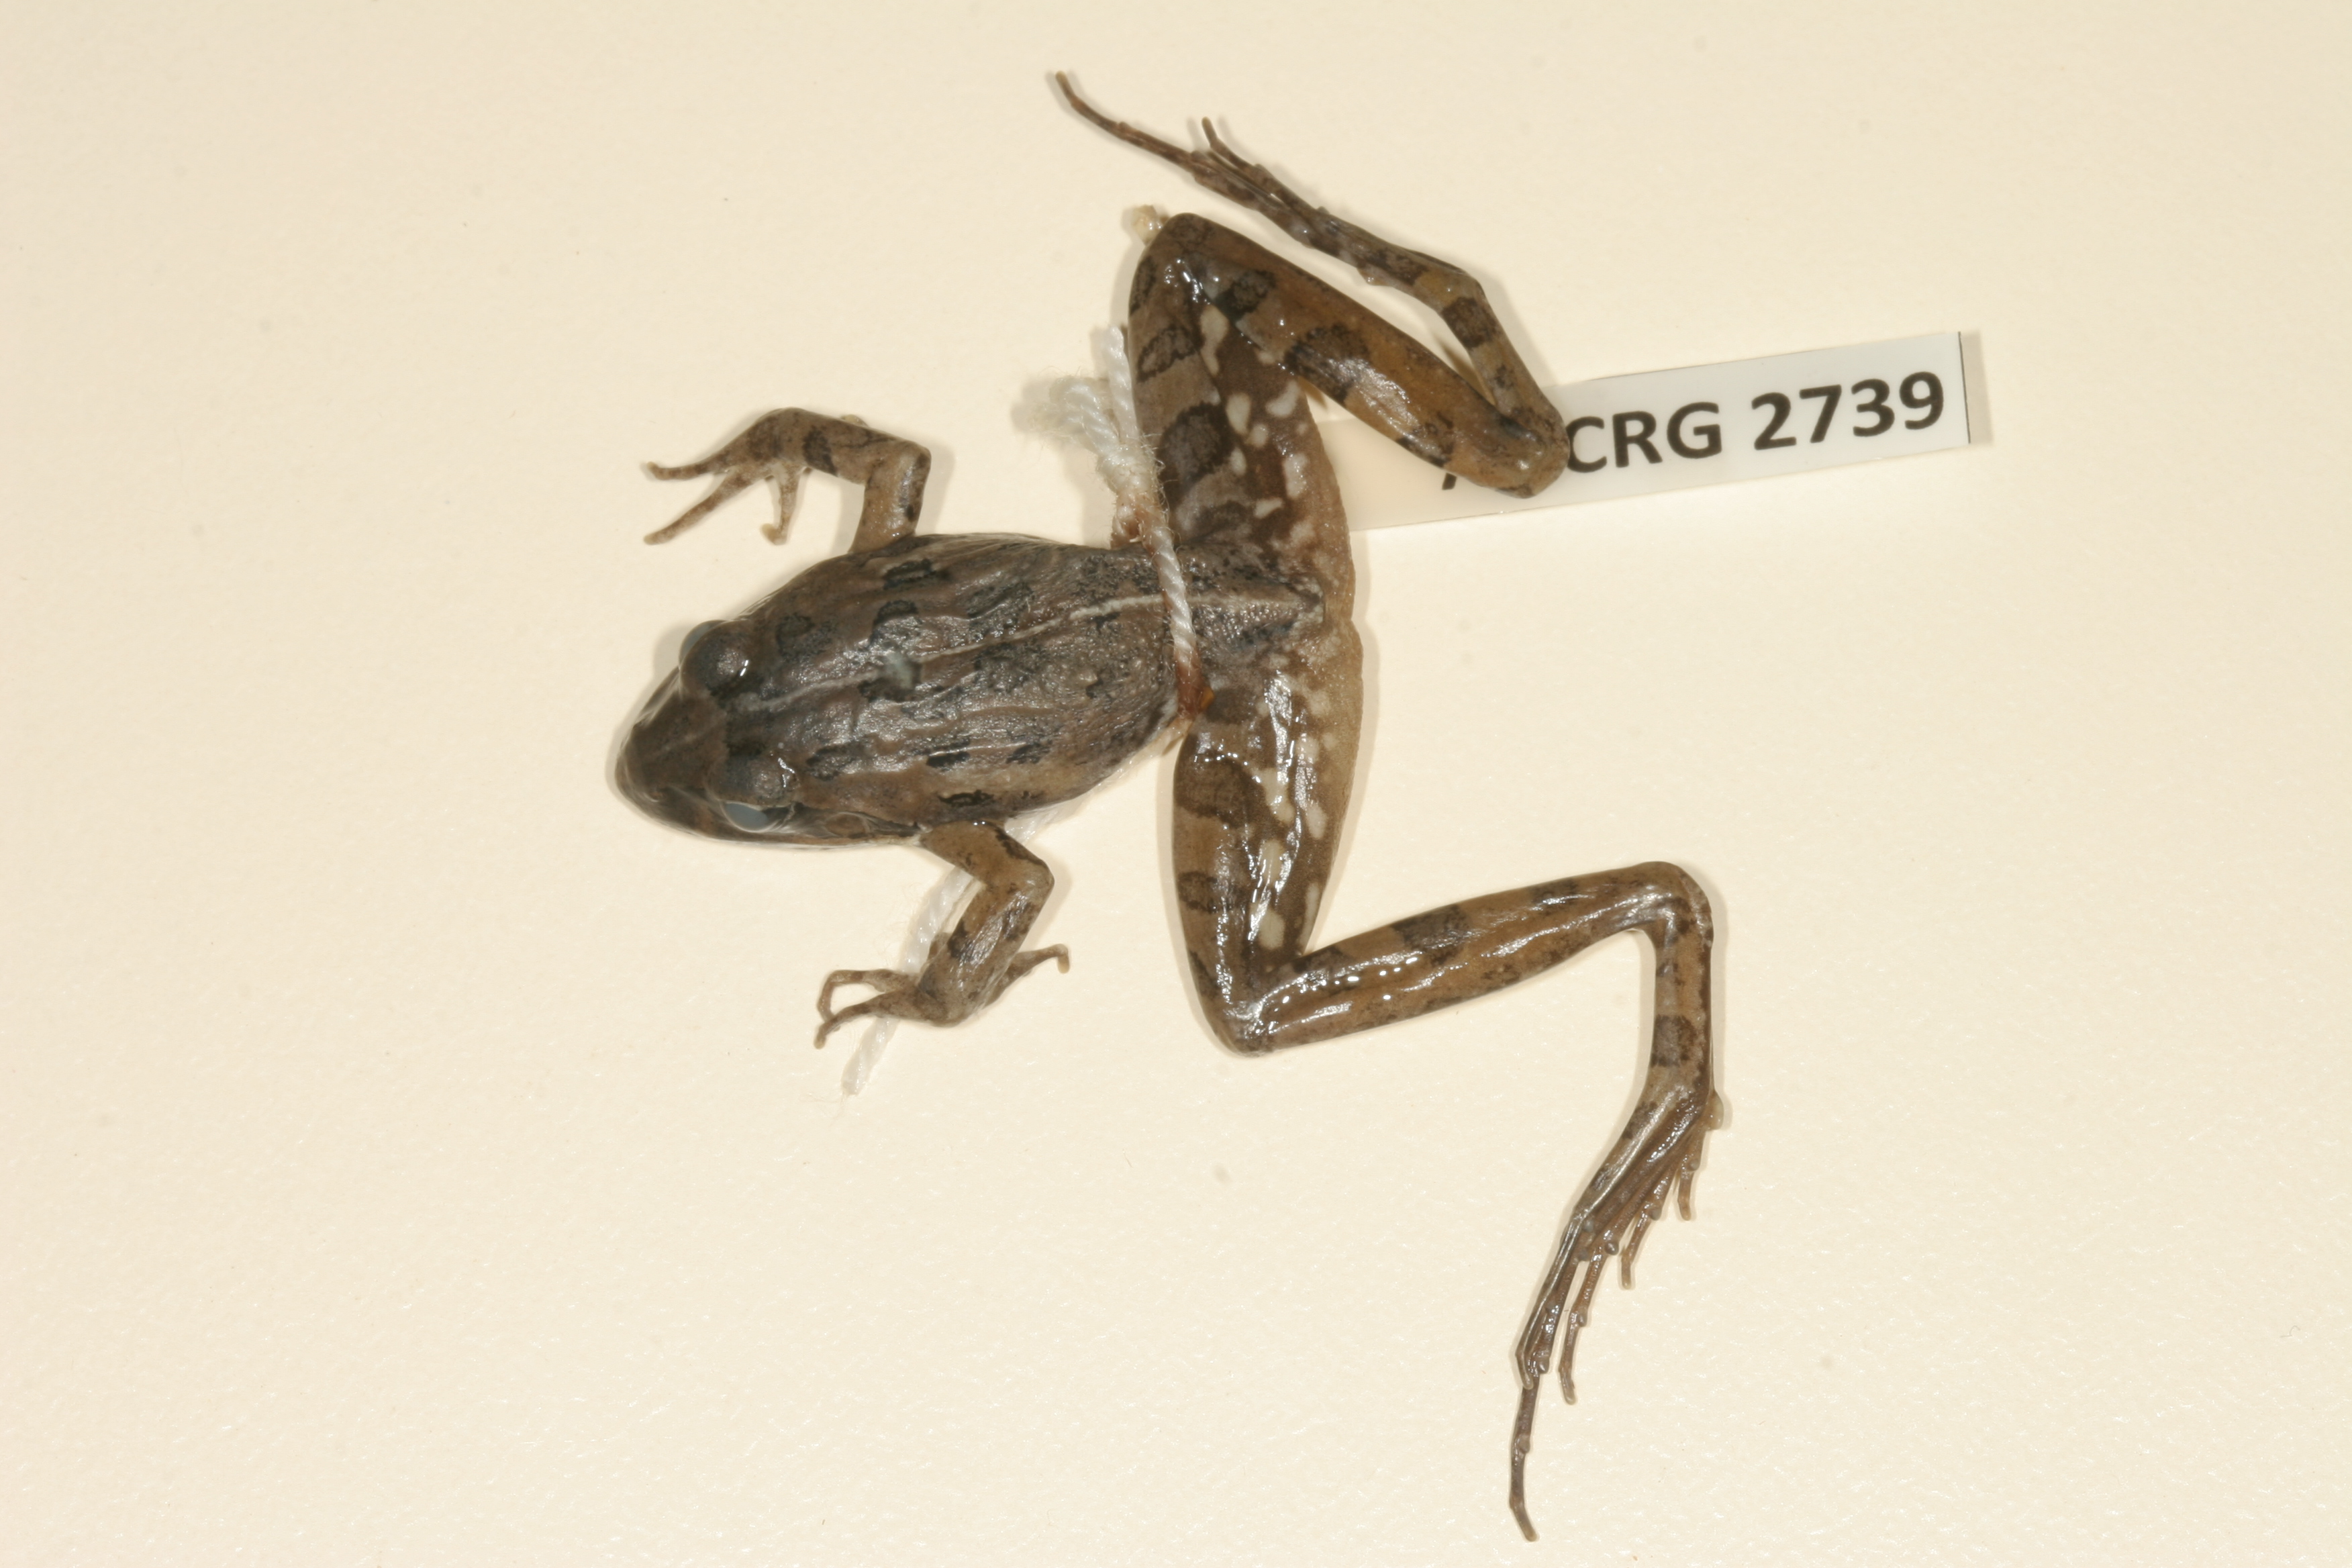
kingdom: Animalia
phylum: Chordata
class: Amphibia
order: Anura
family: Pyxicephalidae
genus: Strongylopus
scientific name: Strongylopus grayii
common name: Gray's stream frog
